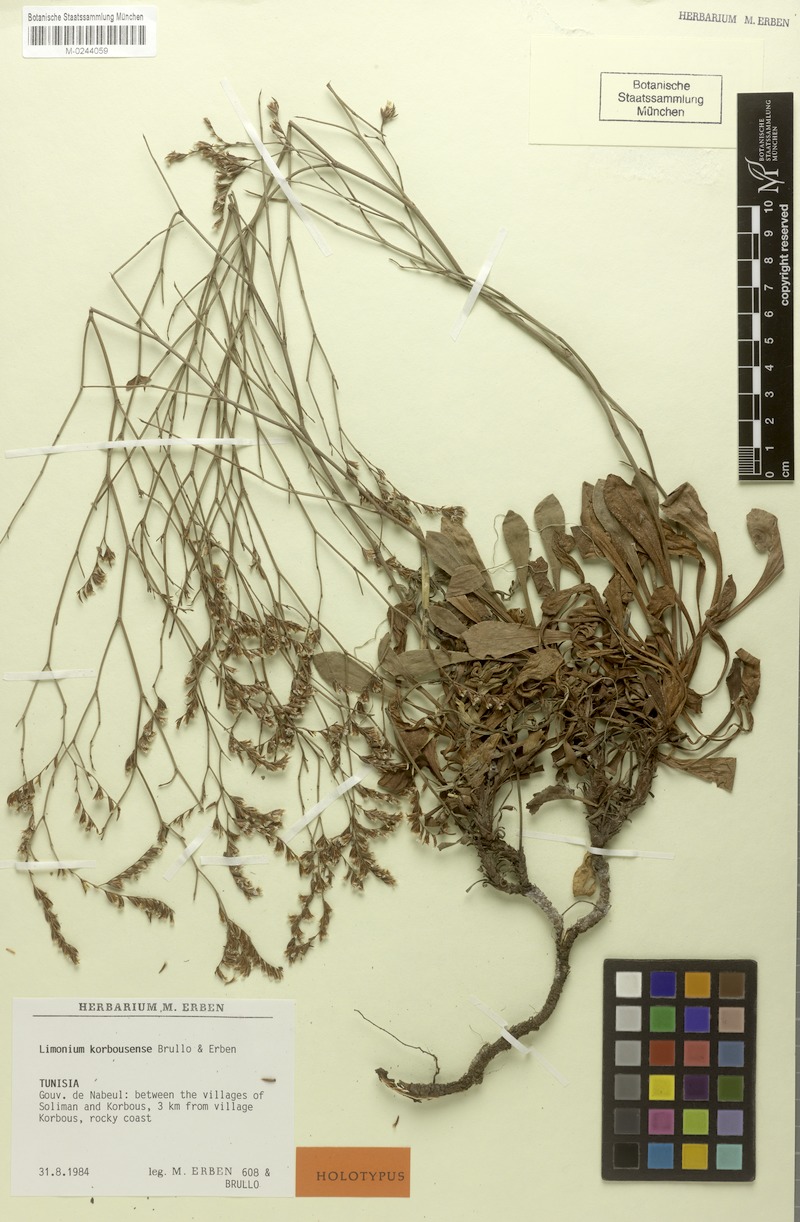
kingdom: Plantae
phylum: Tracheophyta
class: Magnoliopsida
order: Caryophyllales
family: Plumbaginaceae
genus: Limonium
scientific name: Limonium korbousense
